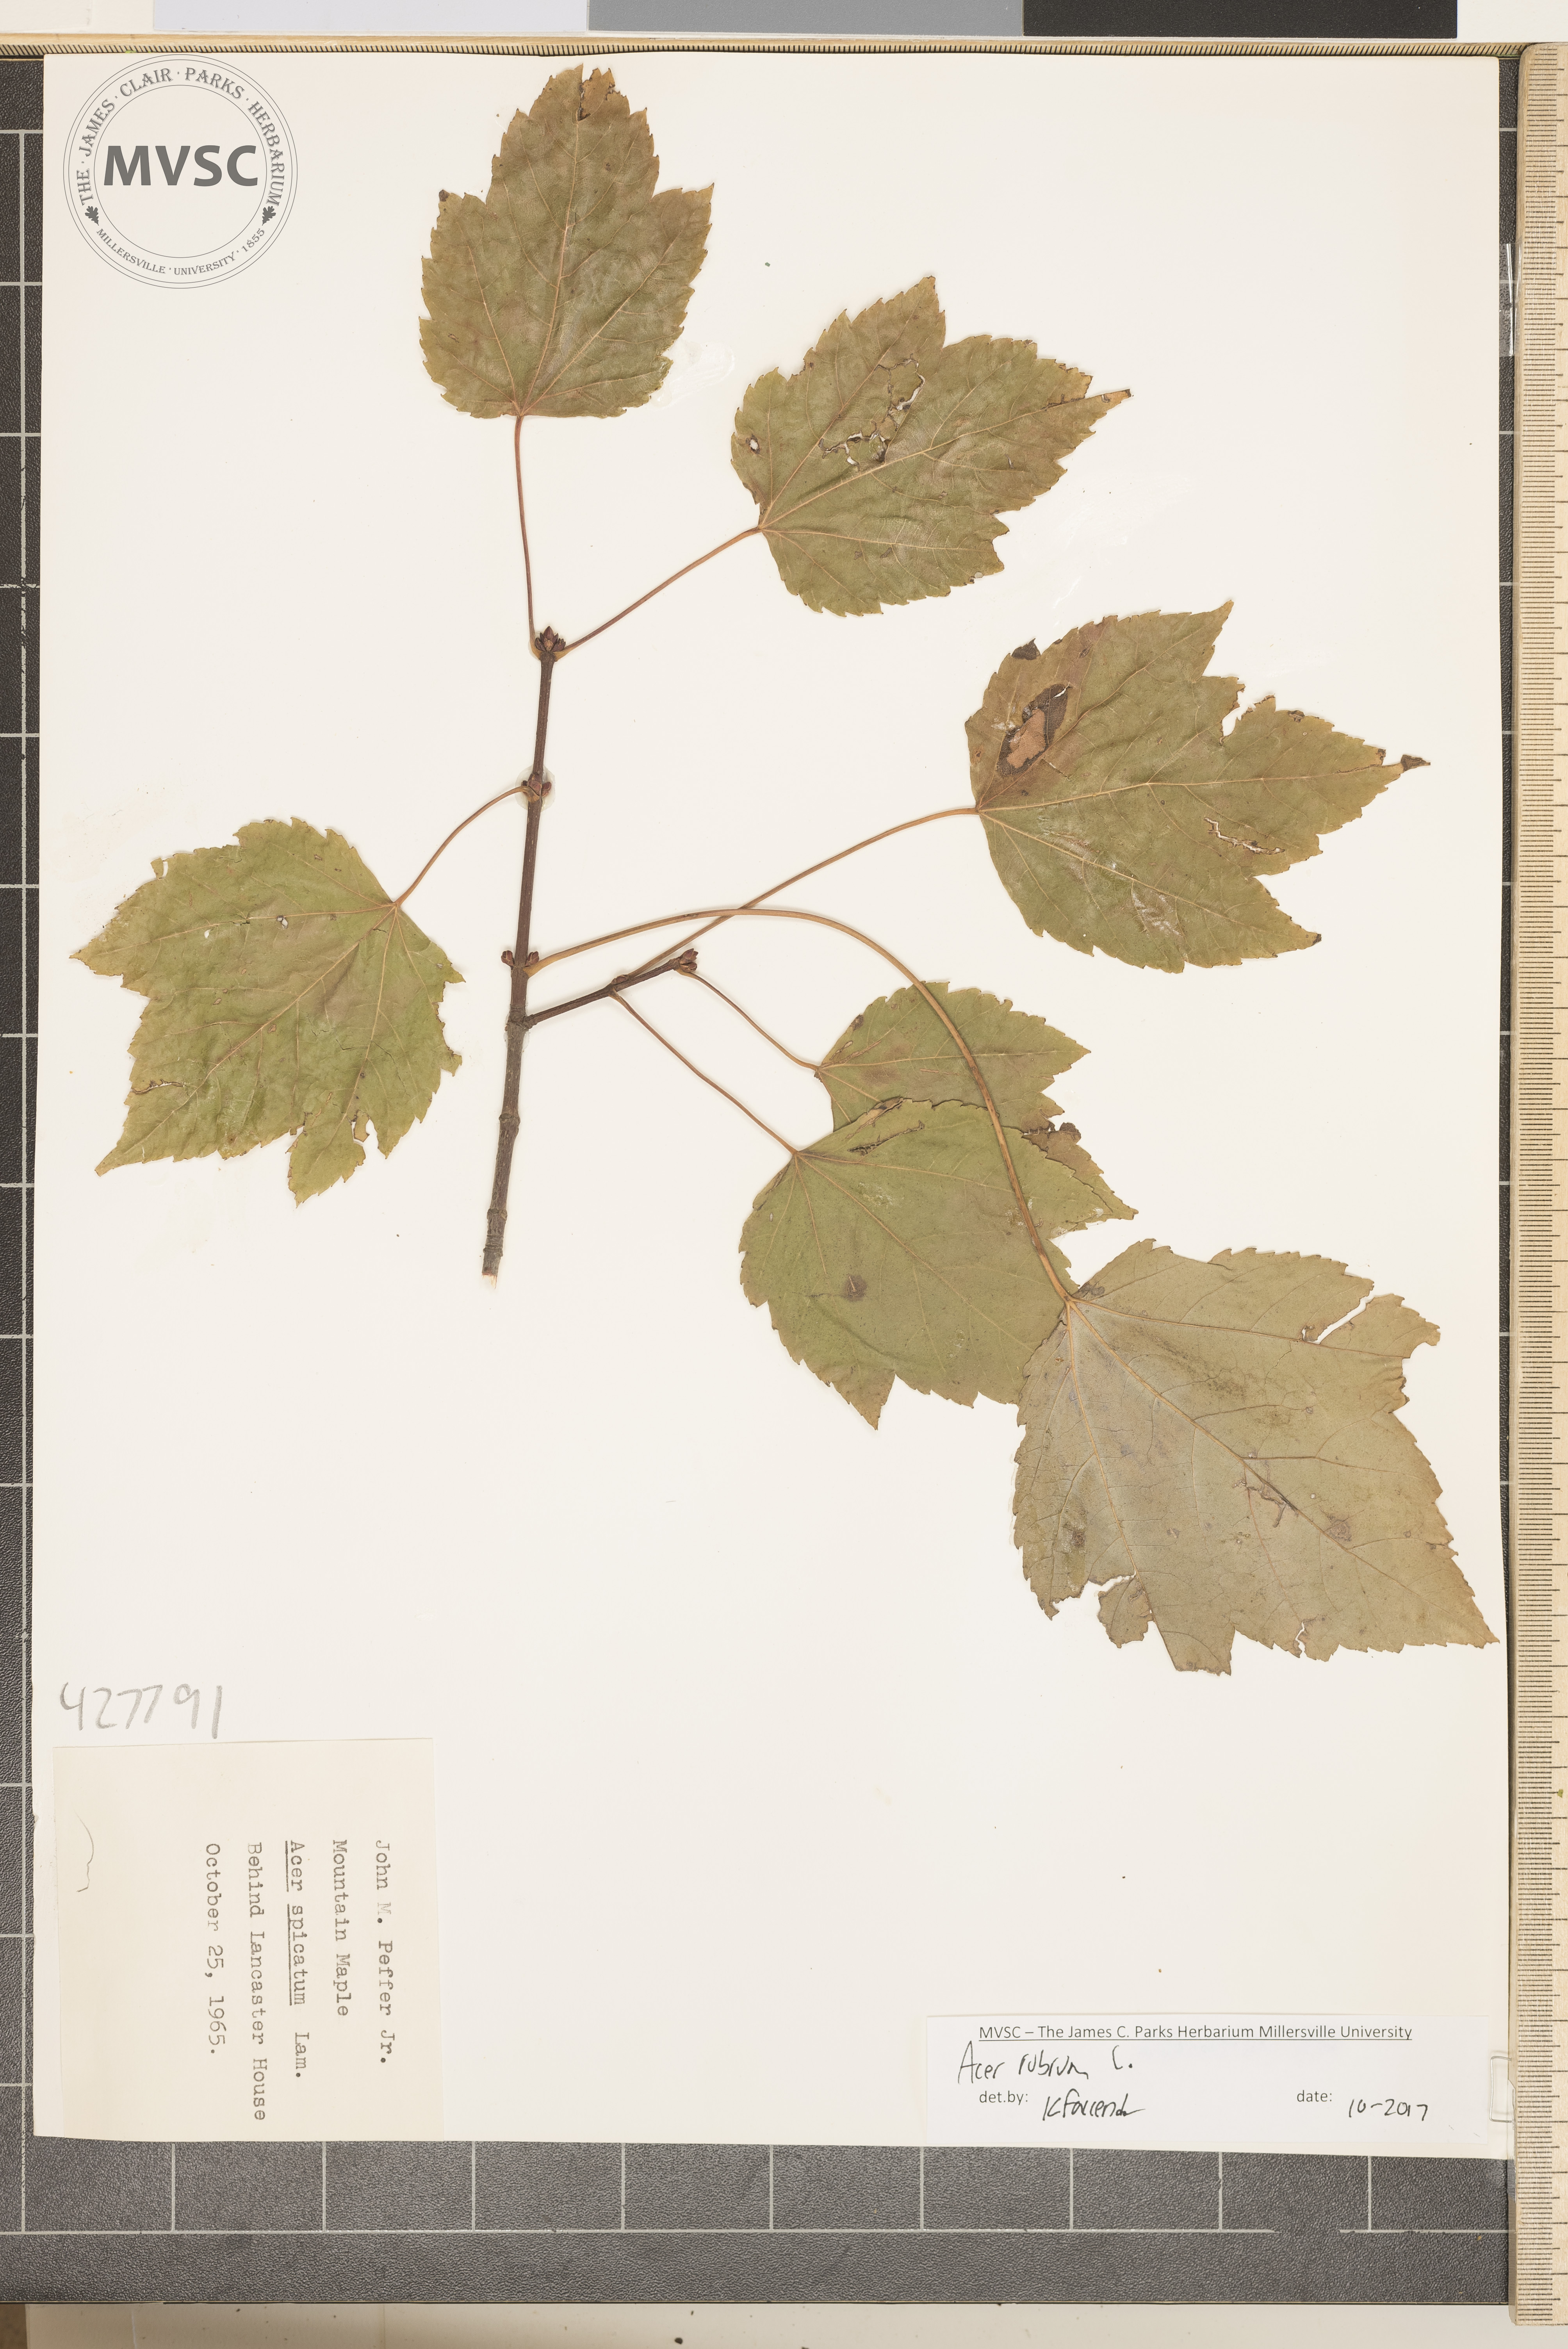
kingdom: Plantae
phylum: Tracheophyta
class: Magnoliopsida
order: Sapindales
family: Sapindaceae
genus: Acer
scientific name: Acer rubrum
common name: Red maple
